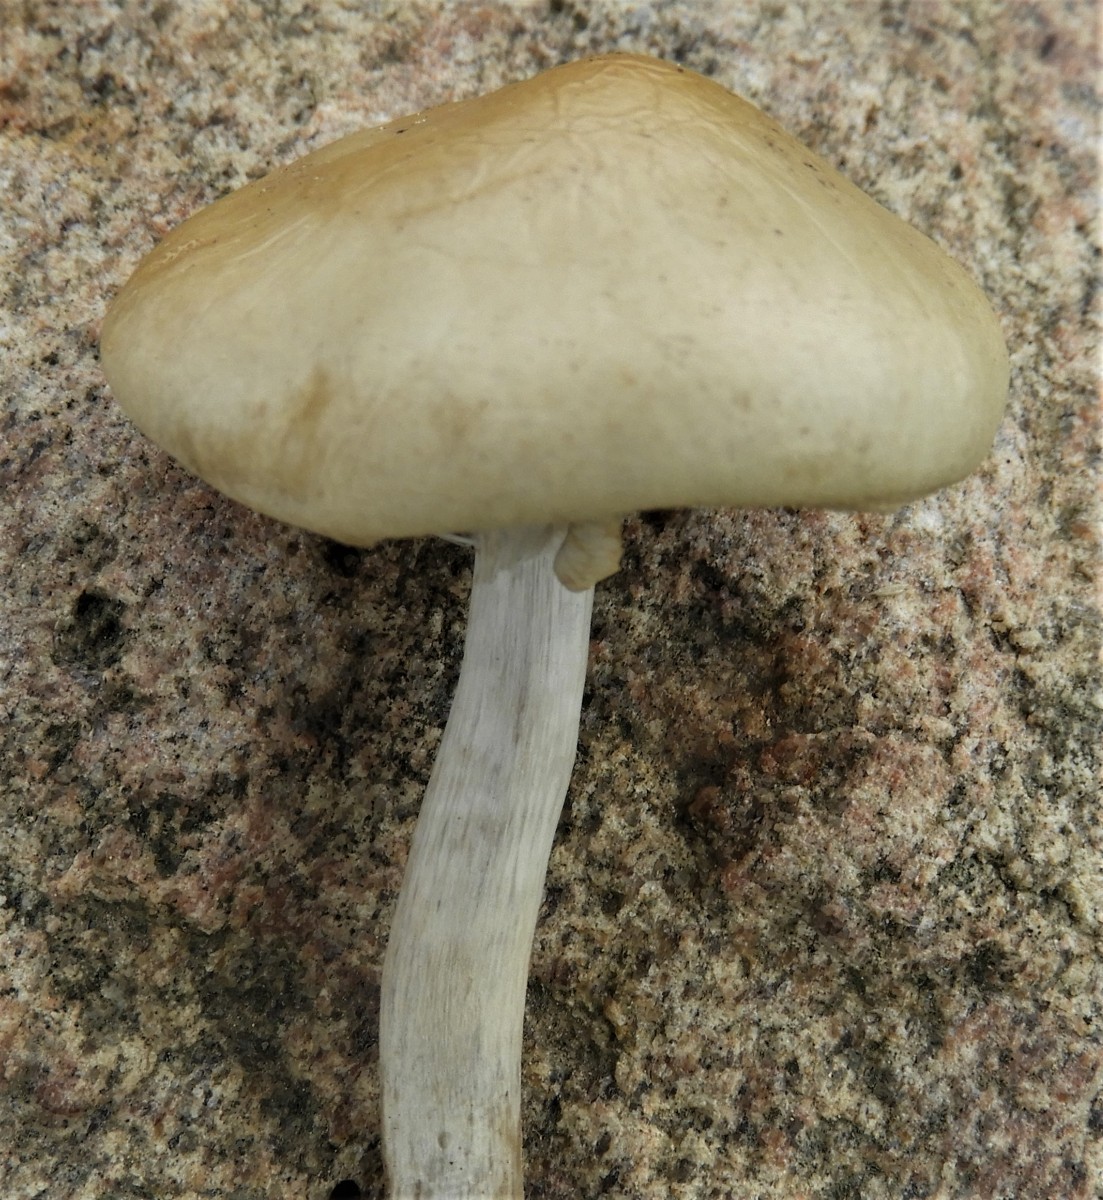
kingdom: Fungi
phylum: Basidiomycota
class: Agaricomycetes
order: Agaricales
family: Strophariaceae
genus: Agrocybe
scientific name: Agrocybe praecox
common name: tidlig agerhat
